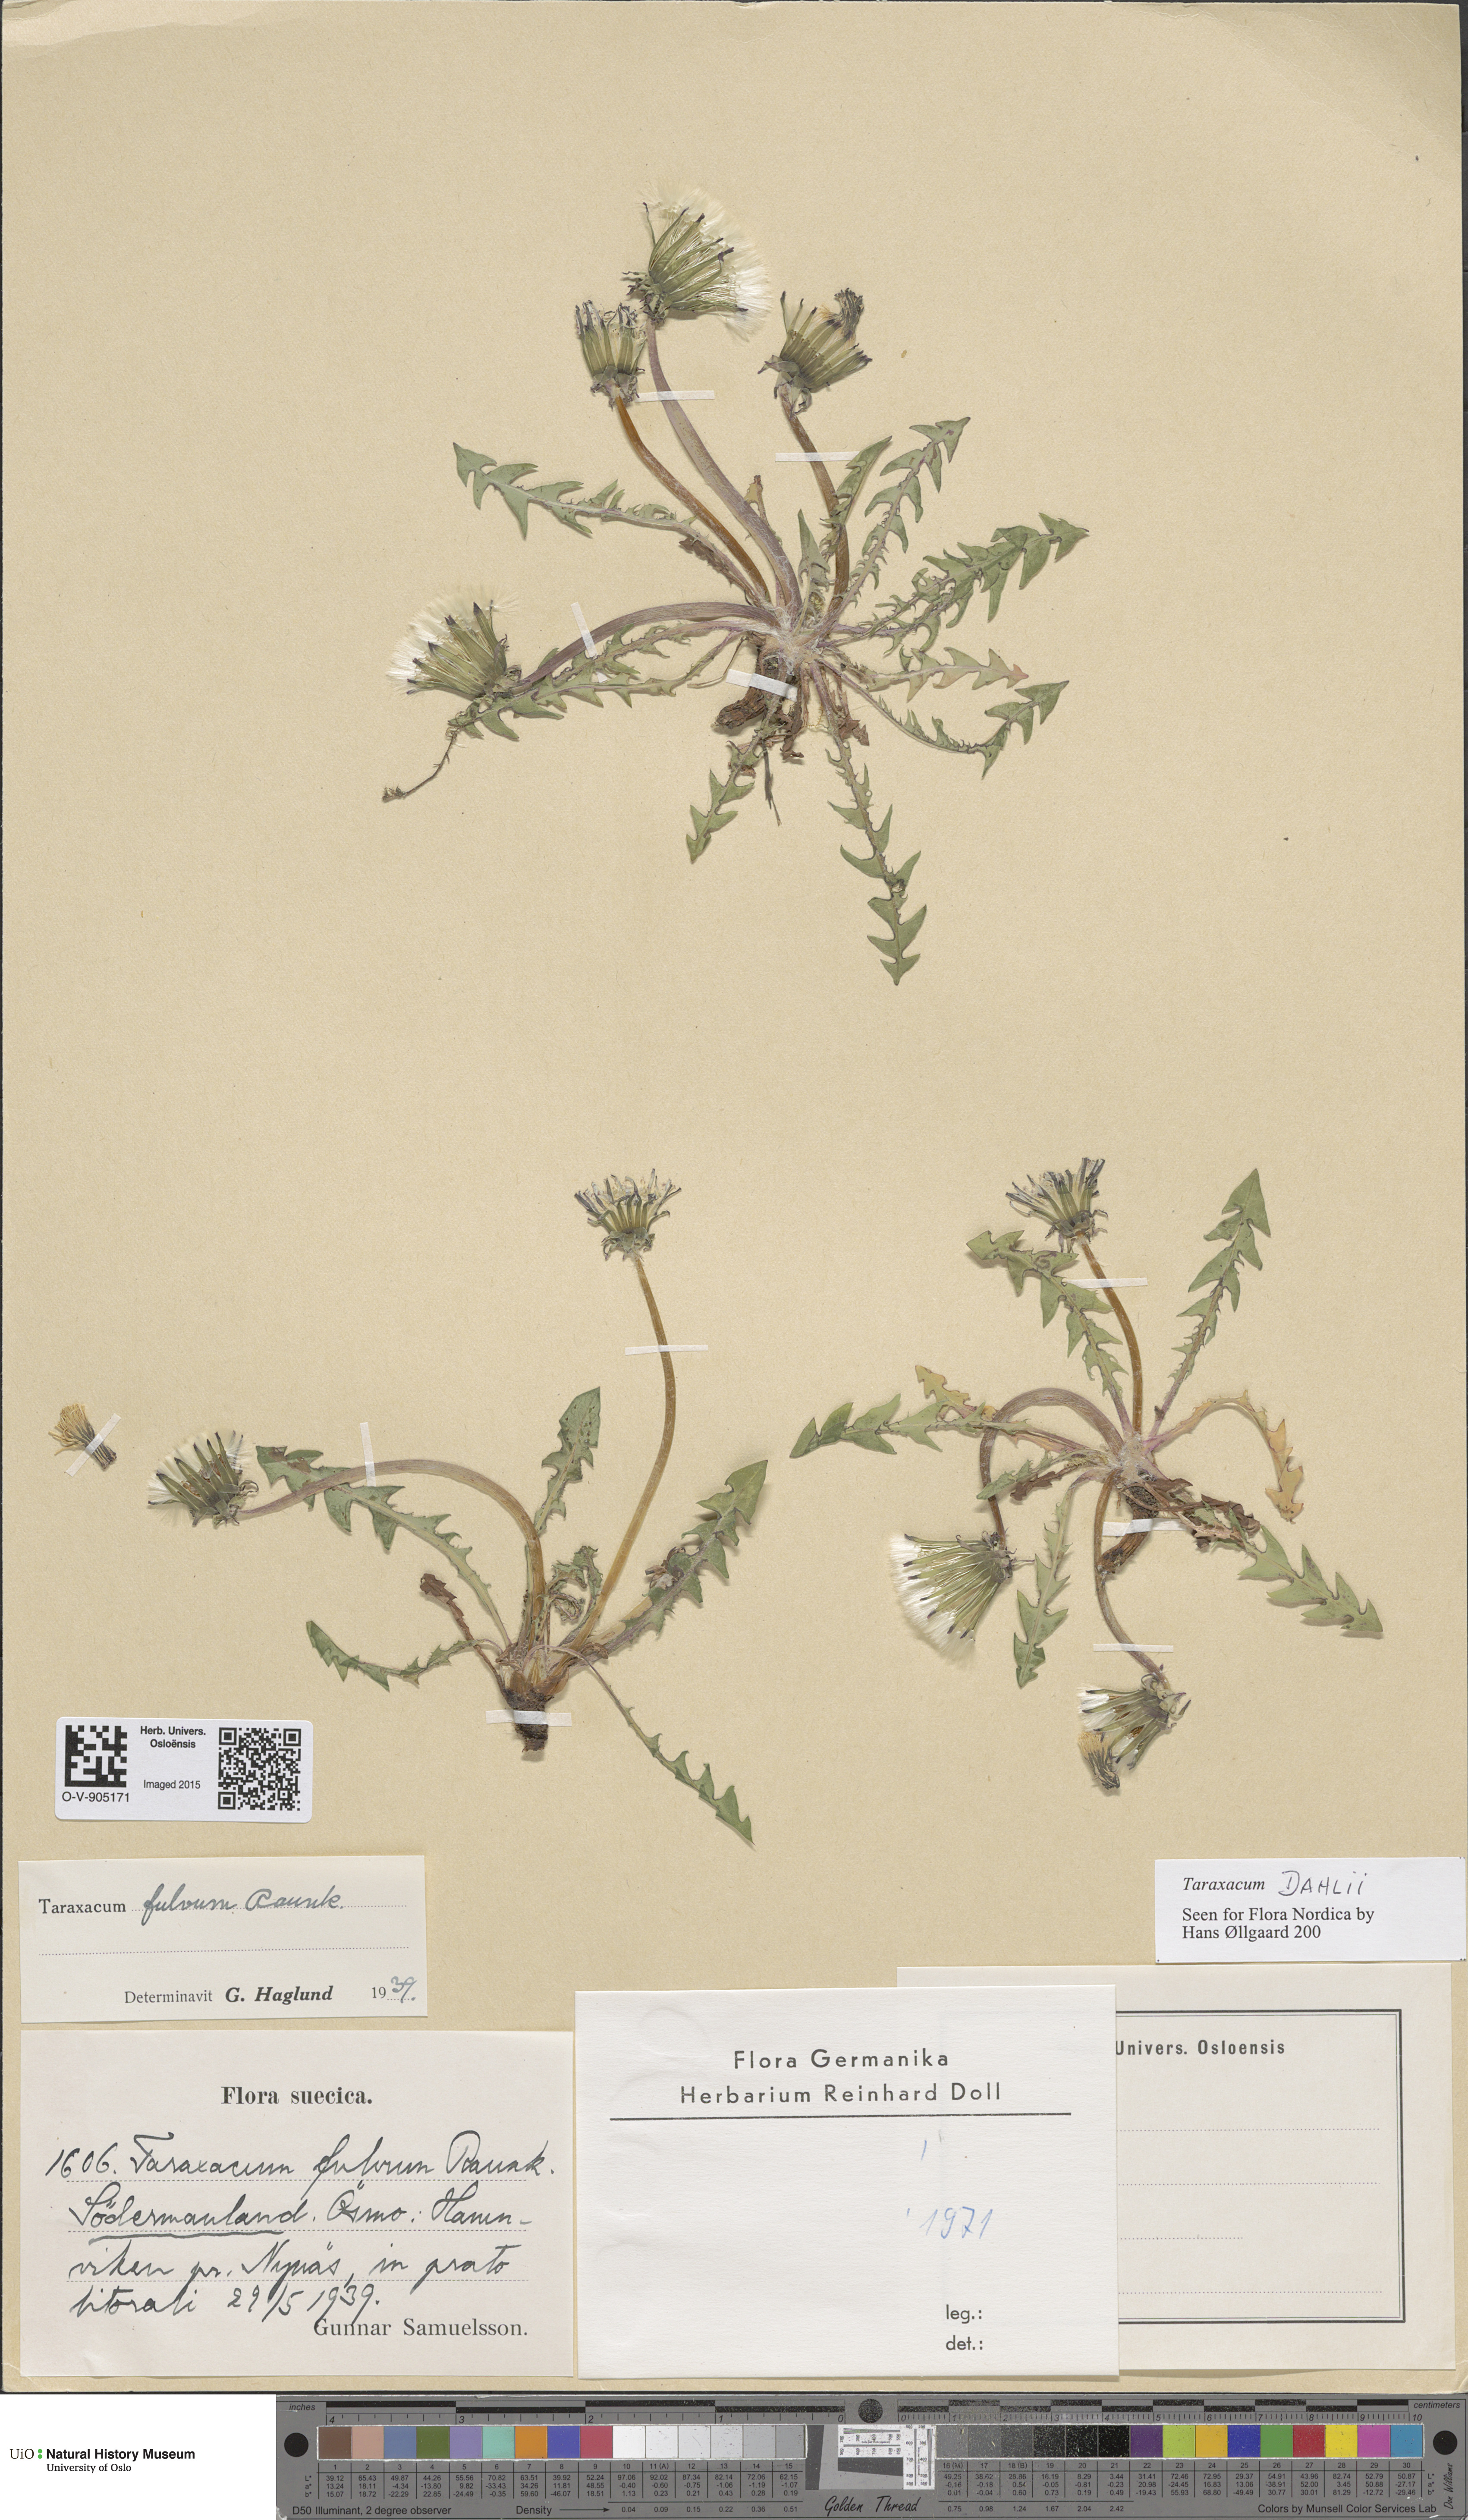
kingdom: Plantae
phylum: Tracheophyta
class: Magnoliopsida
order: Asterales
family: Asteraceae
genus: Taraxacum
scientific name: Taraxacum dahlii
